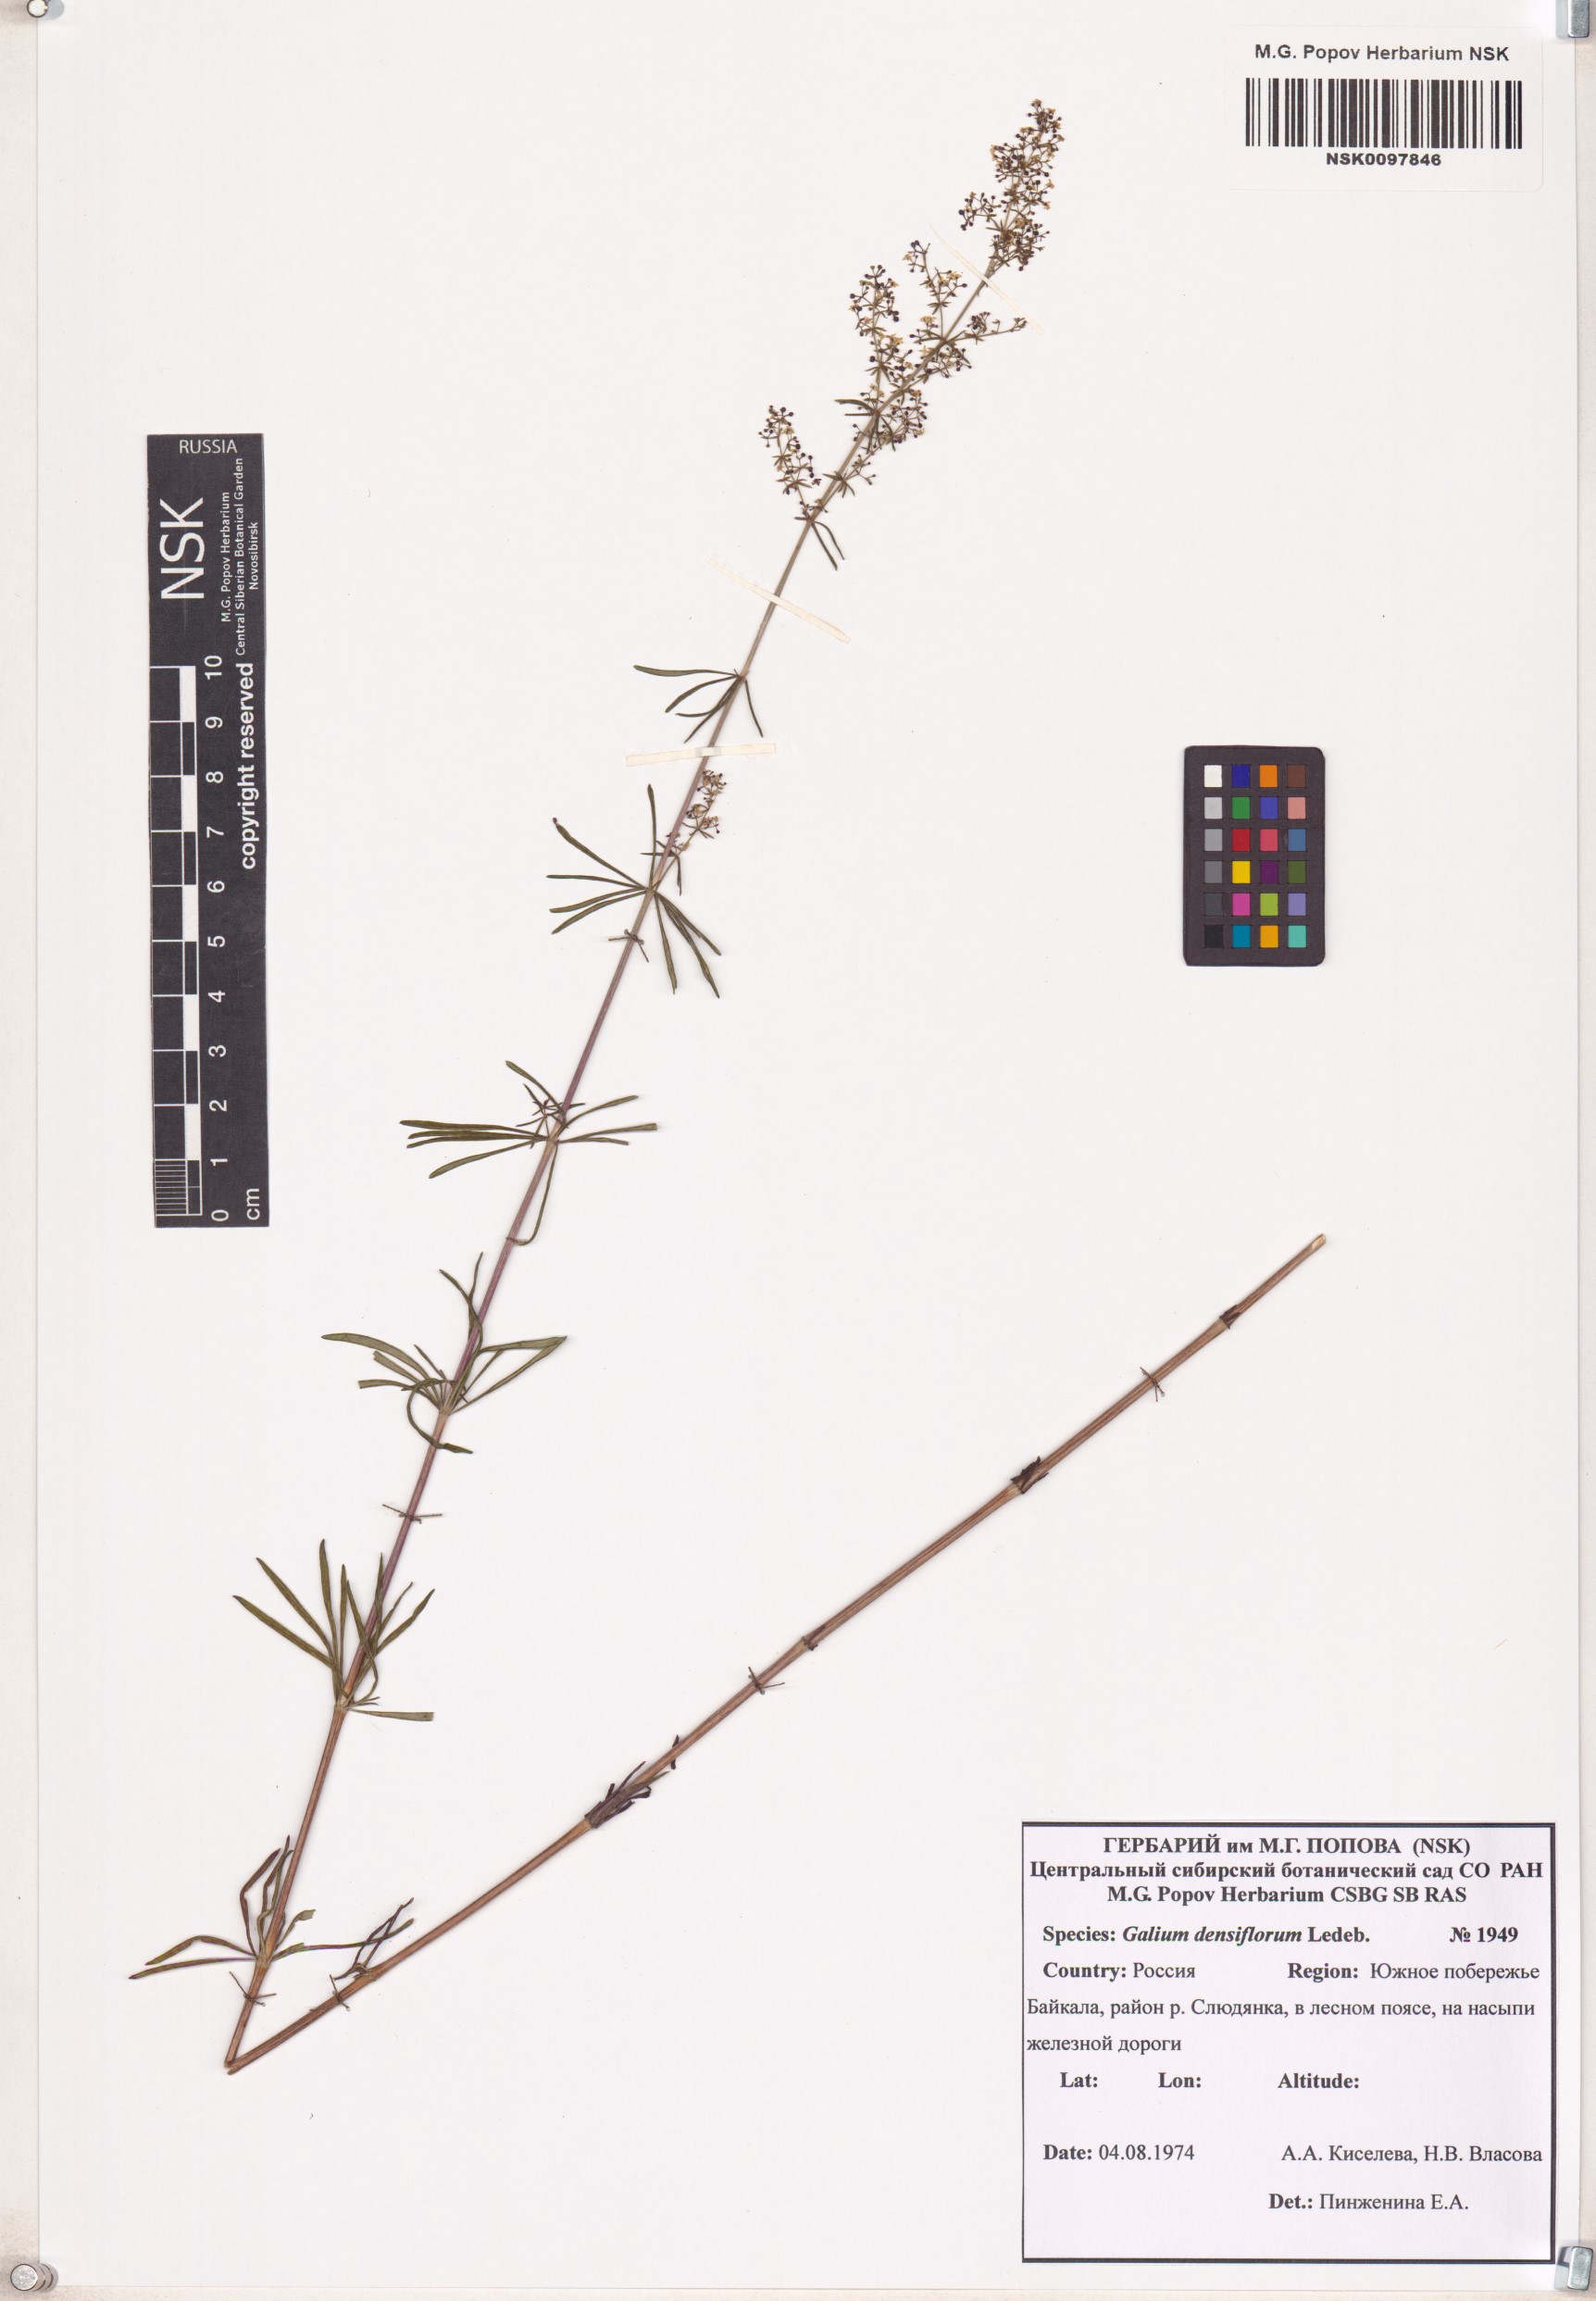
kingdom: Plantae
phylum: Tracheophyta
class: Magnoliopsida
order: Gentianales
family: Rubiaceae
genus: Galium
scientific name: Galium densiflorum
